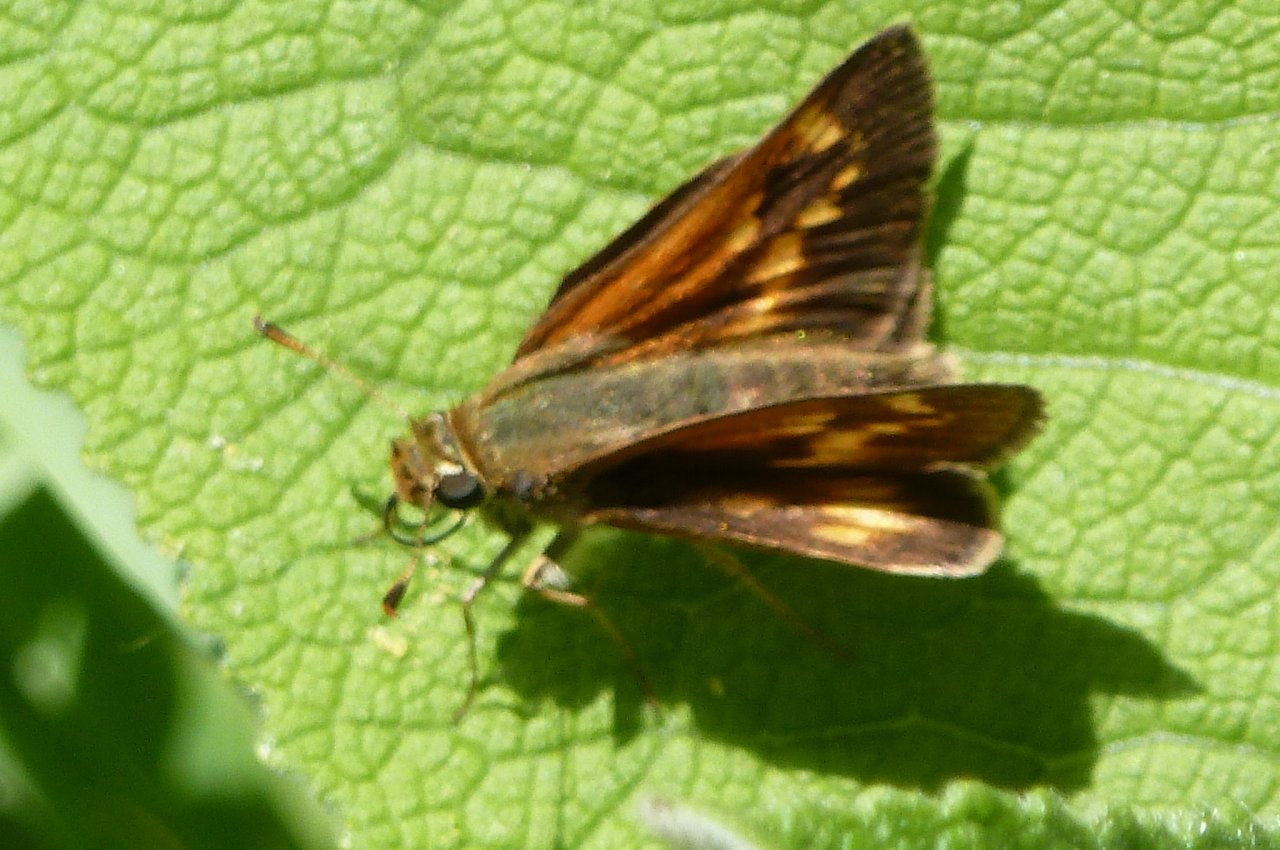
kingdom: Animalia
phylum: Arthropoda
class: Insecta
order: Lepidoptera
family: Hesperiidae
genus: Polites
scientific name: Polites
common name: Long Dash Skipper
